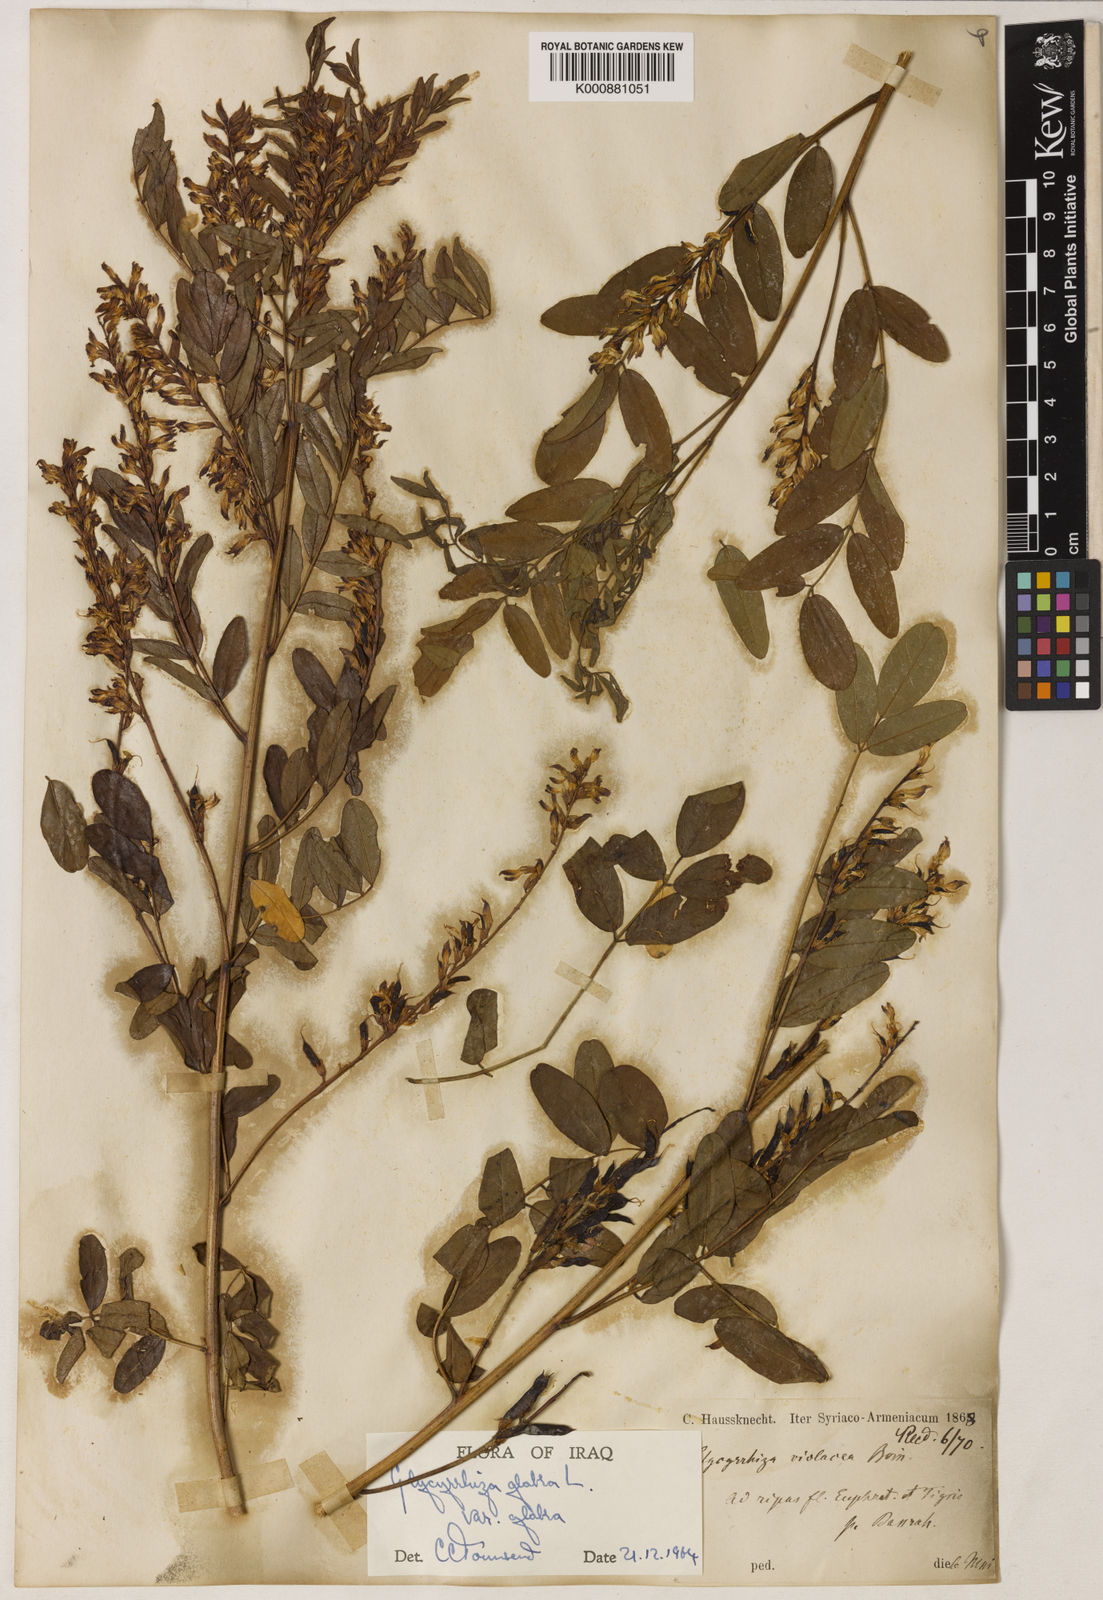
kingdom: Plantae
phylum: Tracheophyta
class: Magnoliopsida
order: Fabales
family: Fabaceae
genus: Glycyrrhiza
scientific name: Glycyrrhiza glabra
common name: Liquorice
